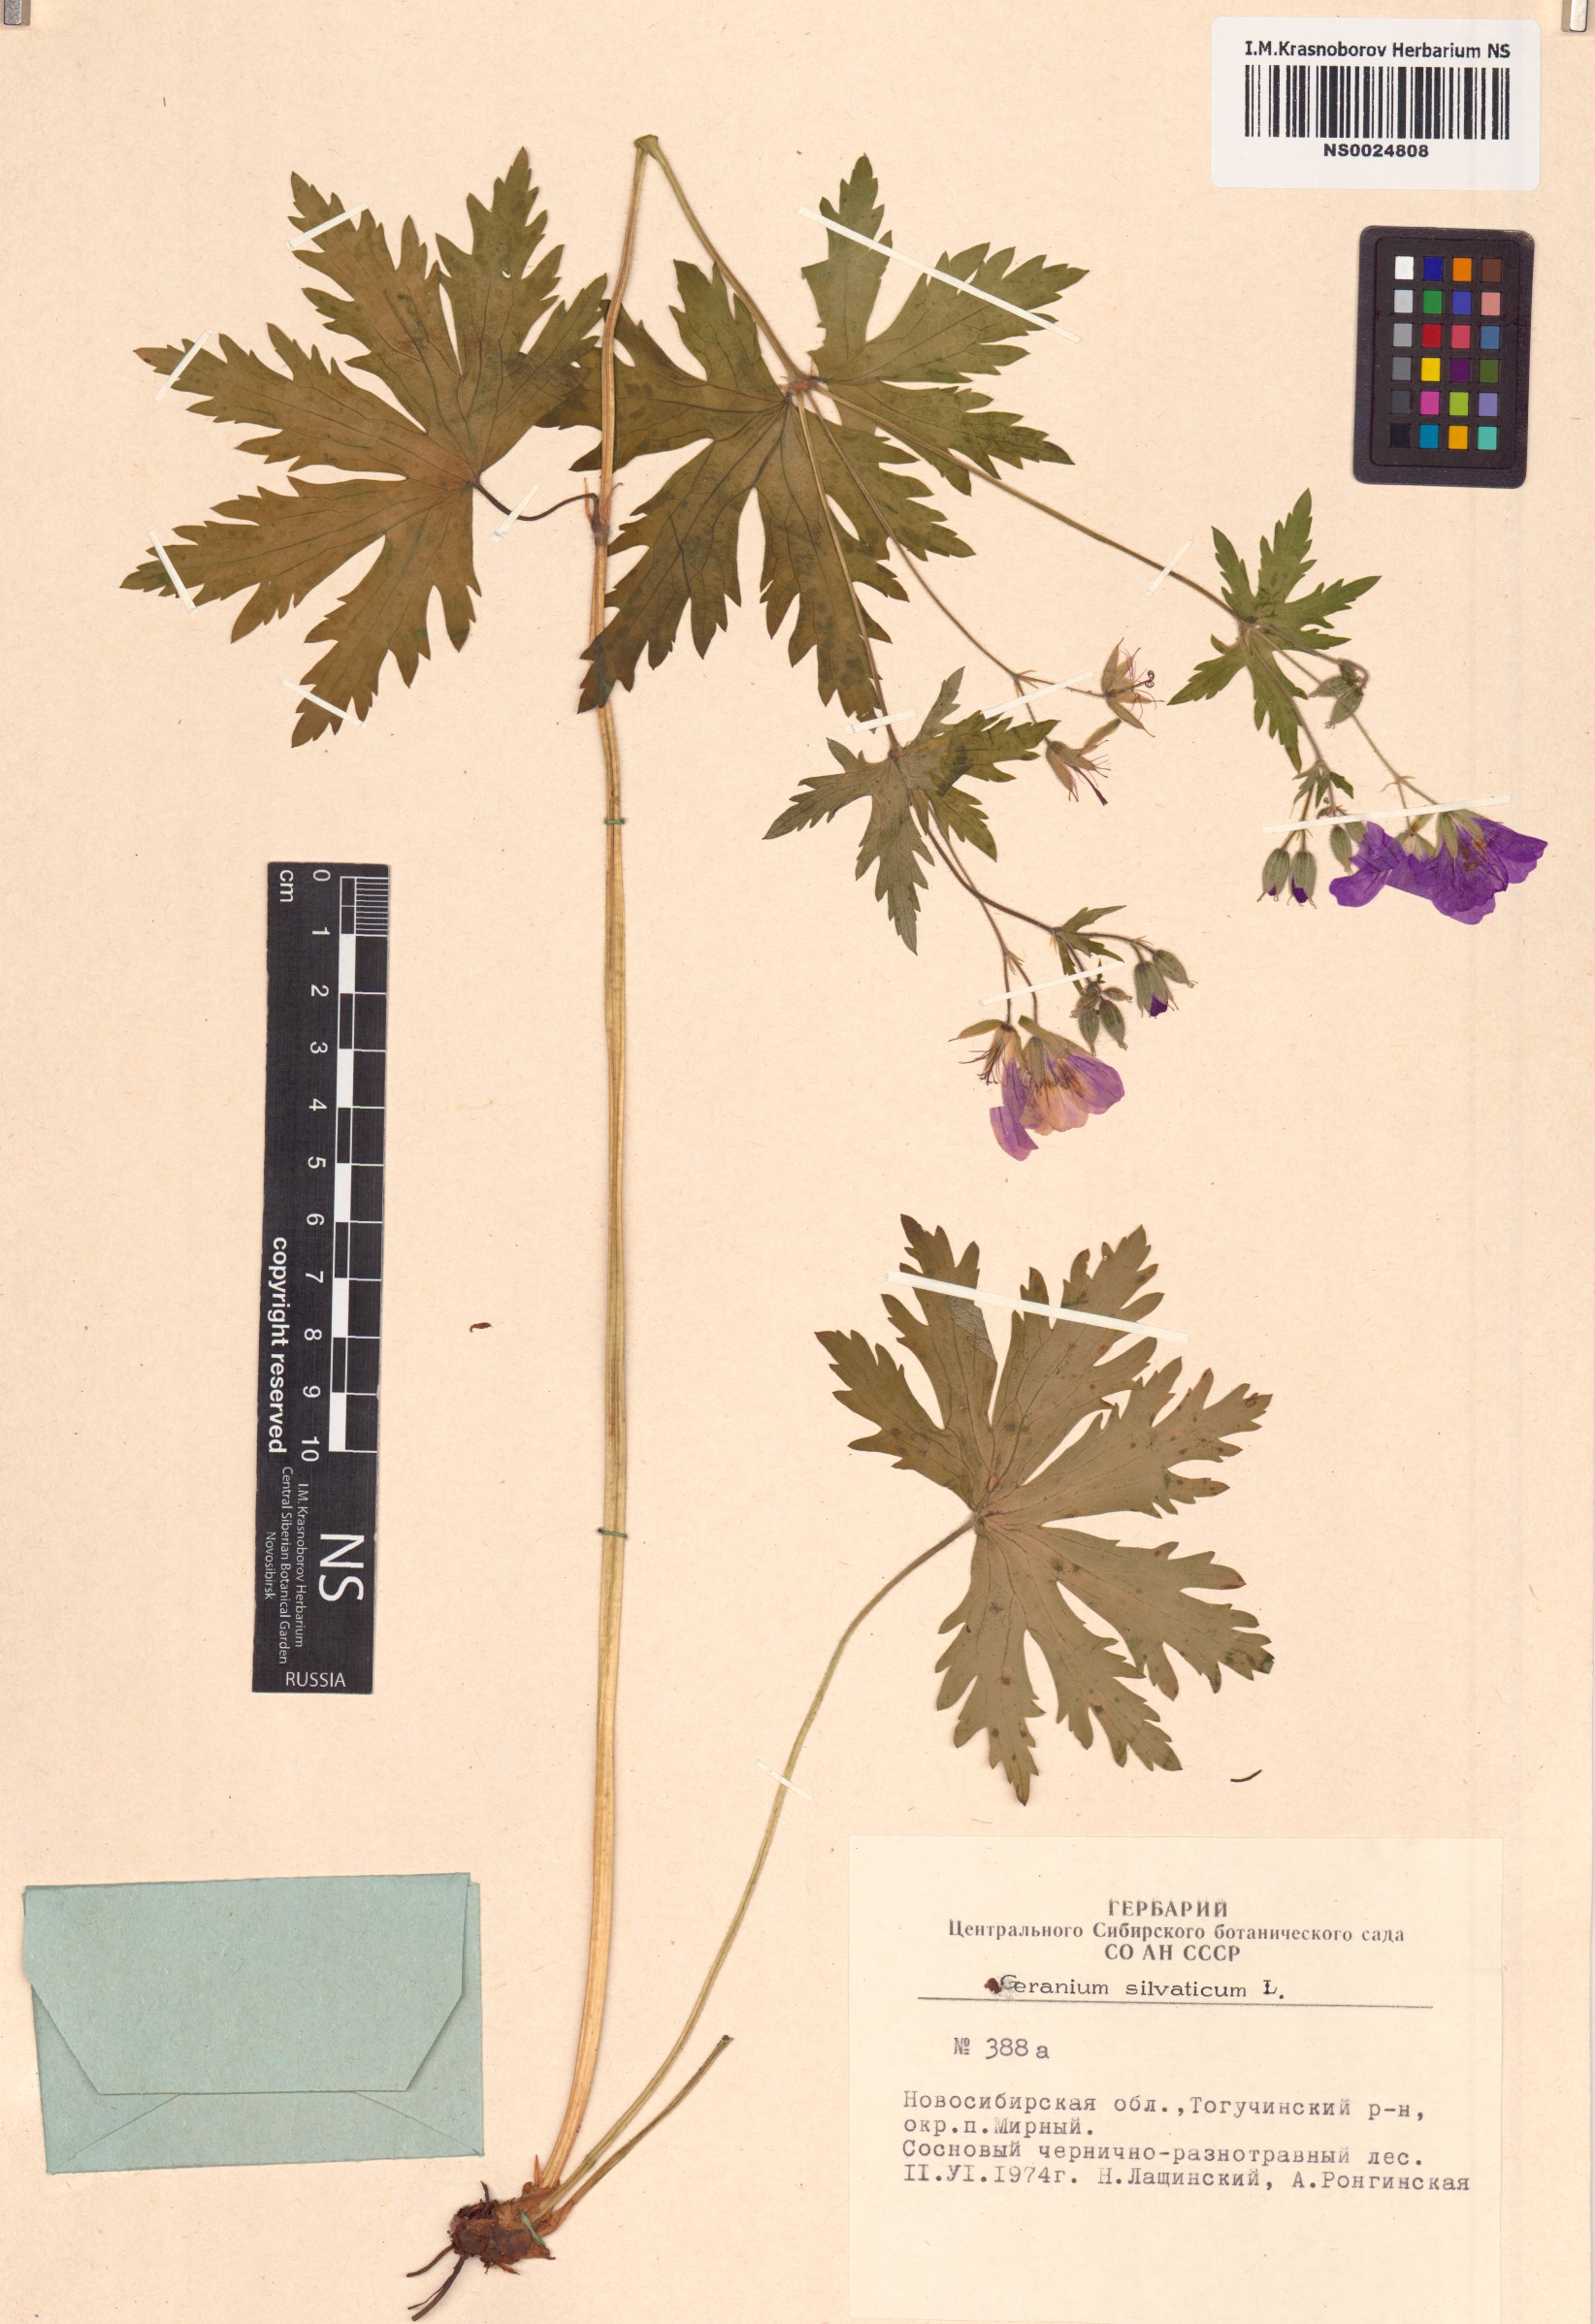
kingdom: Plantae
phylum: Tracheophyta
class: Magnoliopsida
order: Geraniales
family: Geraniaceae
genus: Geranium
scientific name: Geranium sylvaticum
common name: Wood crane's-bill
